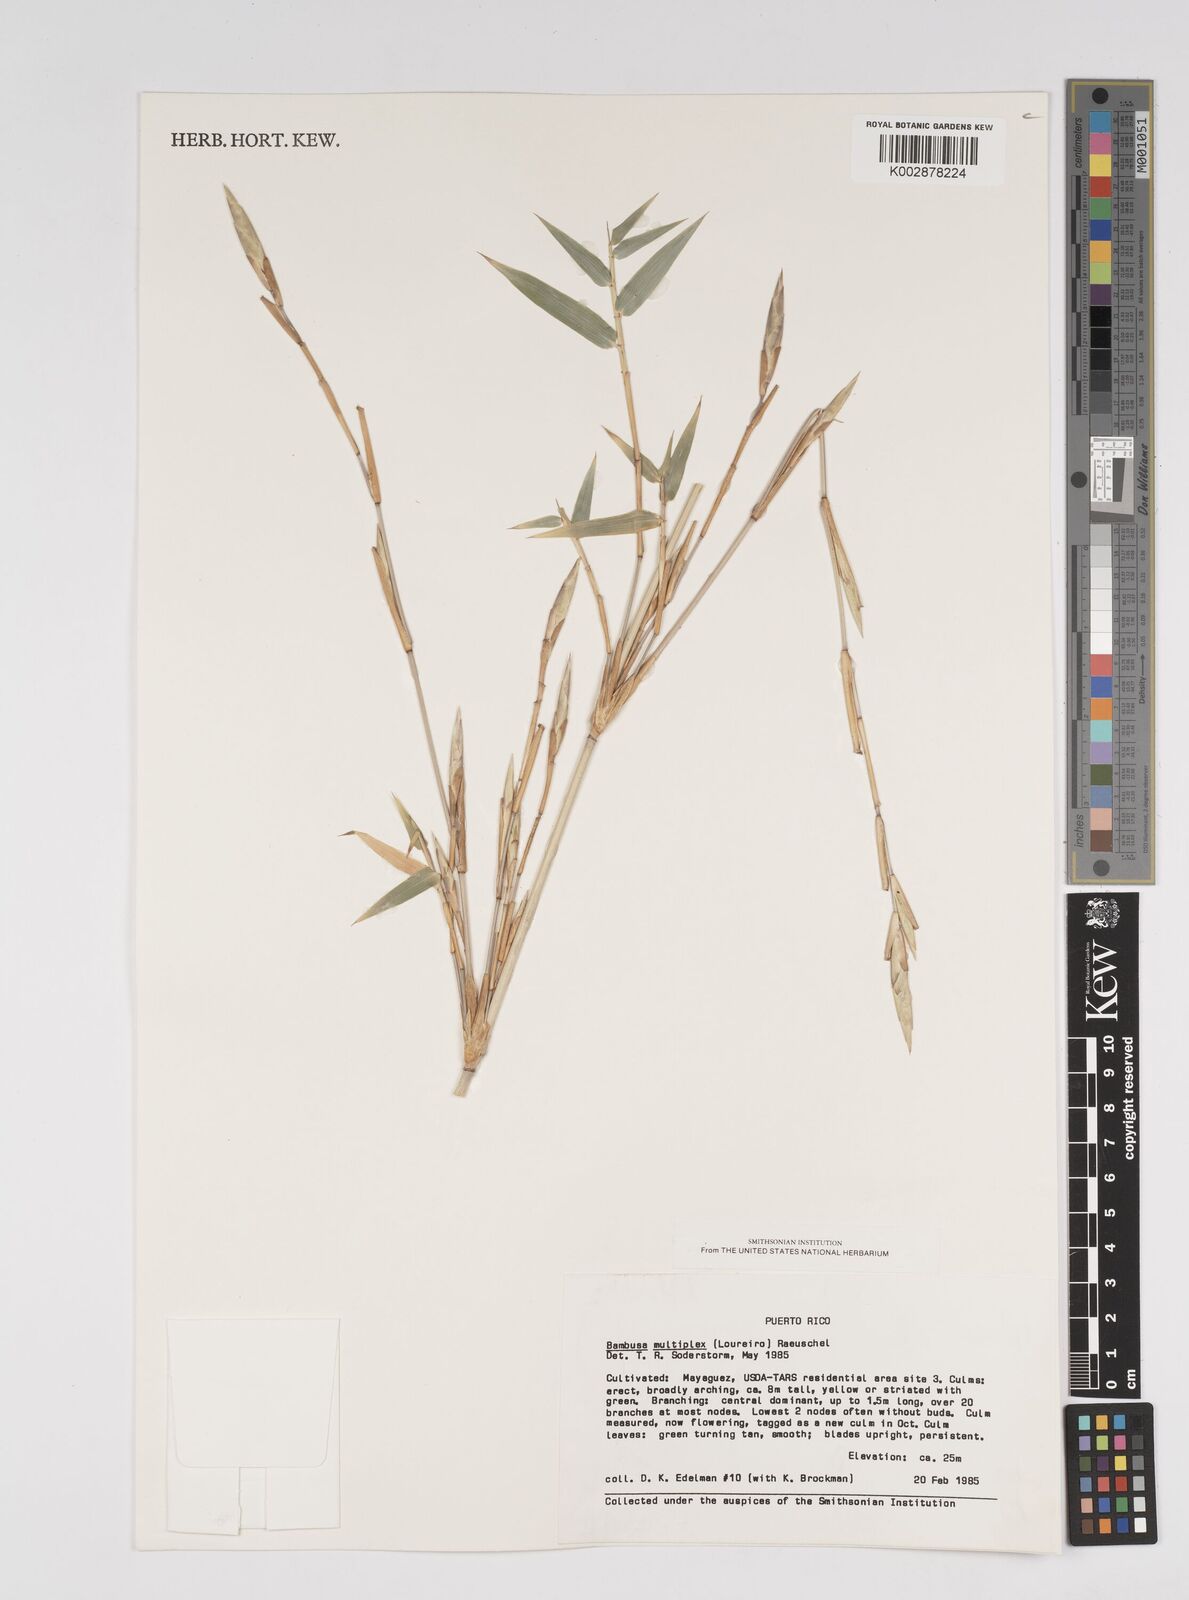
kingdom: Plantae
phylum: Tracheophyta
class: Liliopsida
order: Poales
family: Poaceae
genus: Bambusa
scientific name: Bambusa multiplex
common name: Hedge bamboo
